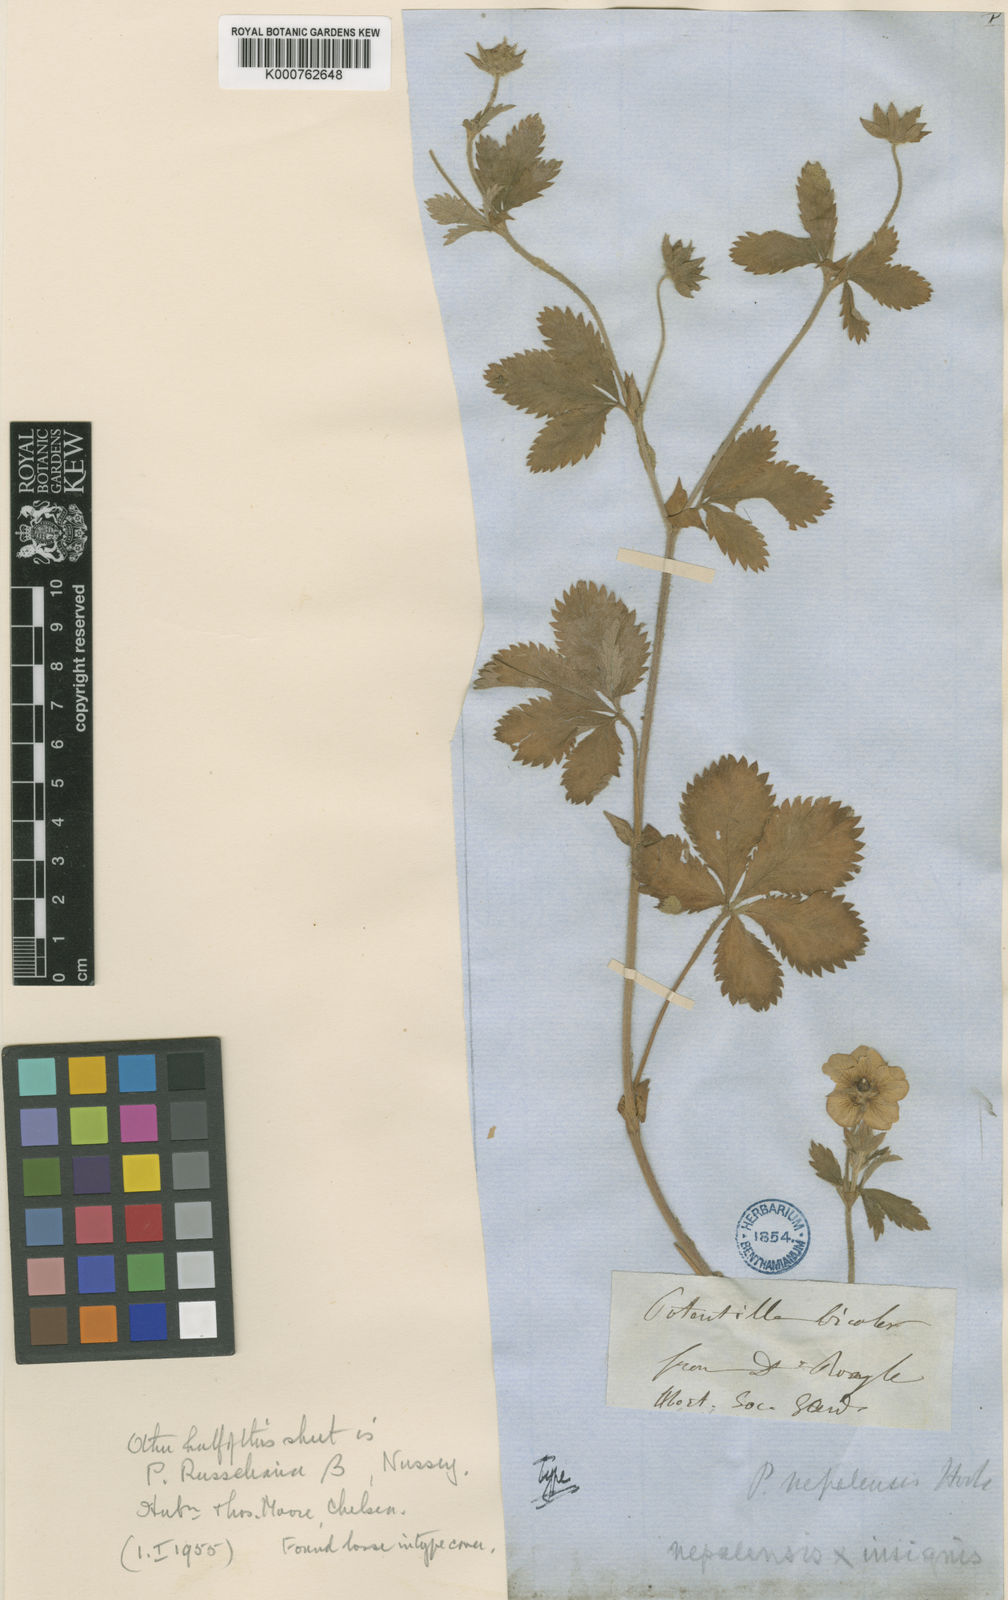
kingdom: Plantae
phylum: Tracheophyta
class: Magnoliopsida
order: Rosales
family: Rosaceae
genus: Potentilla
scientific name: Potentilla nepalensis
